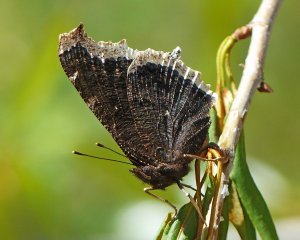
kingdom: Animalia
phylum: Arthropoda
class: Insecta
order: Lepidoptera
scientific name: Lepidoptera
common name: Butterflies
